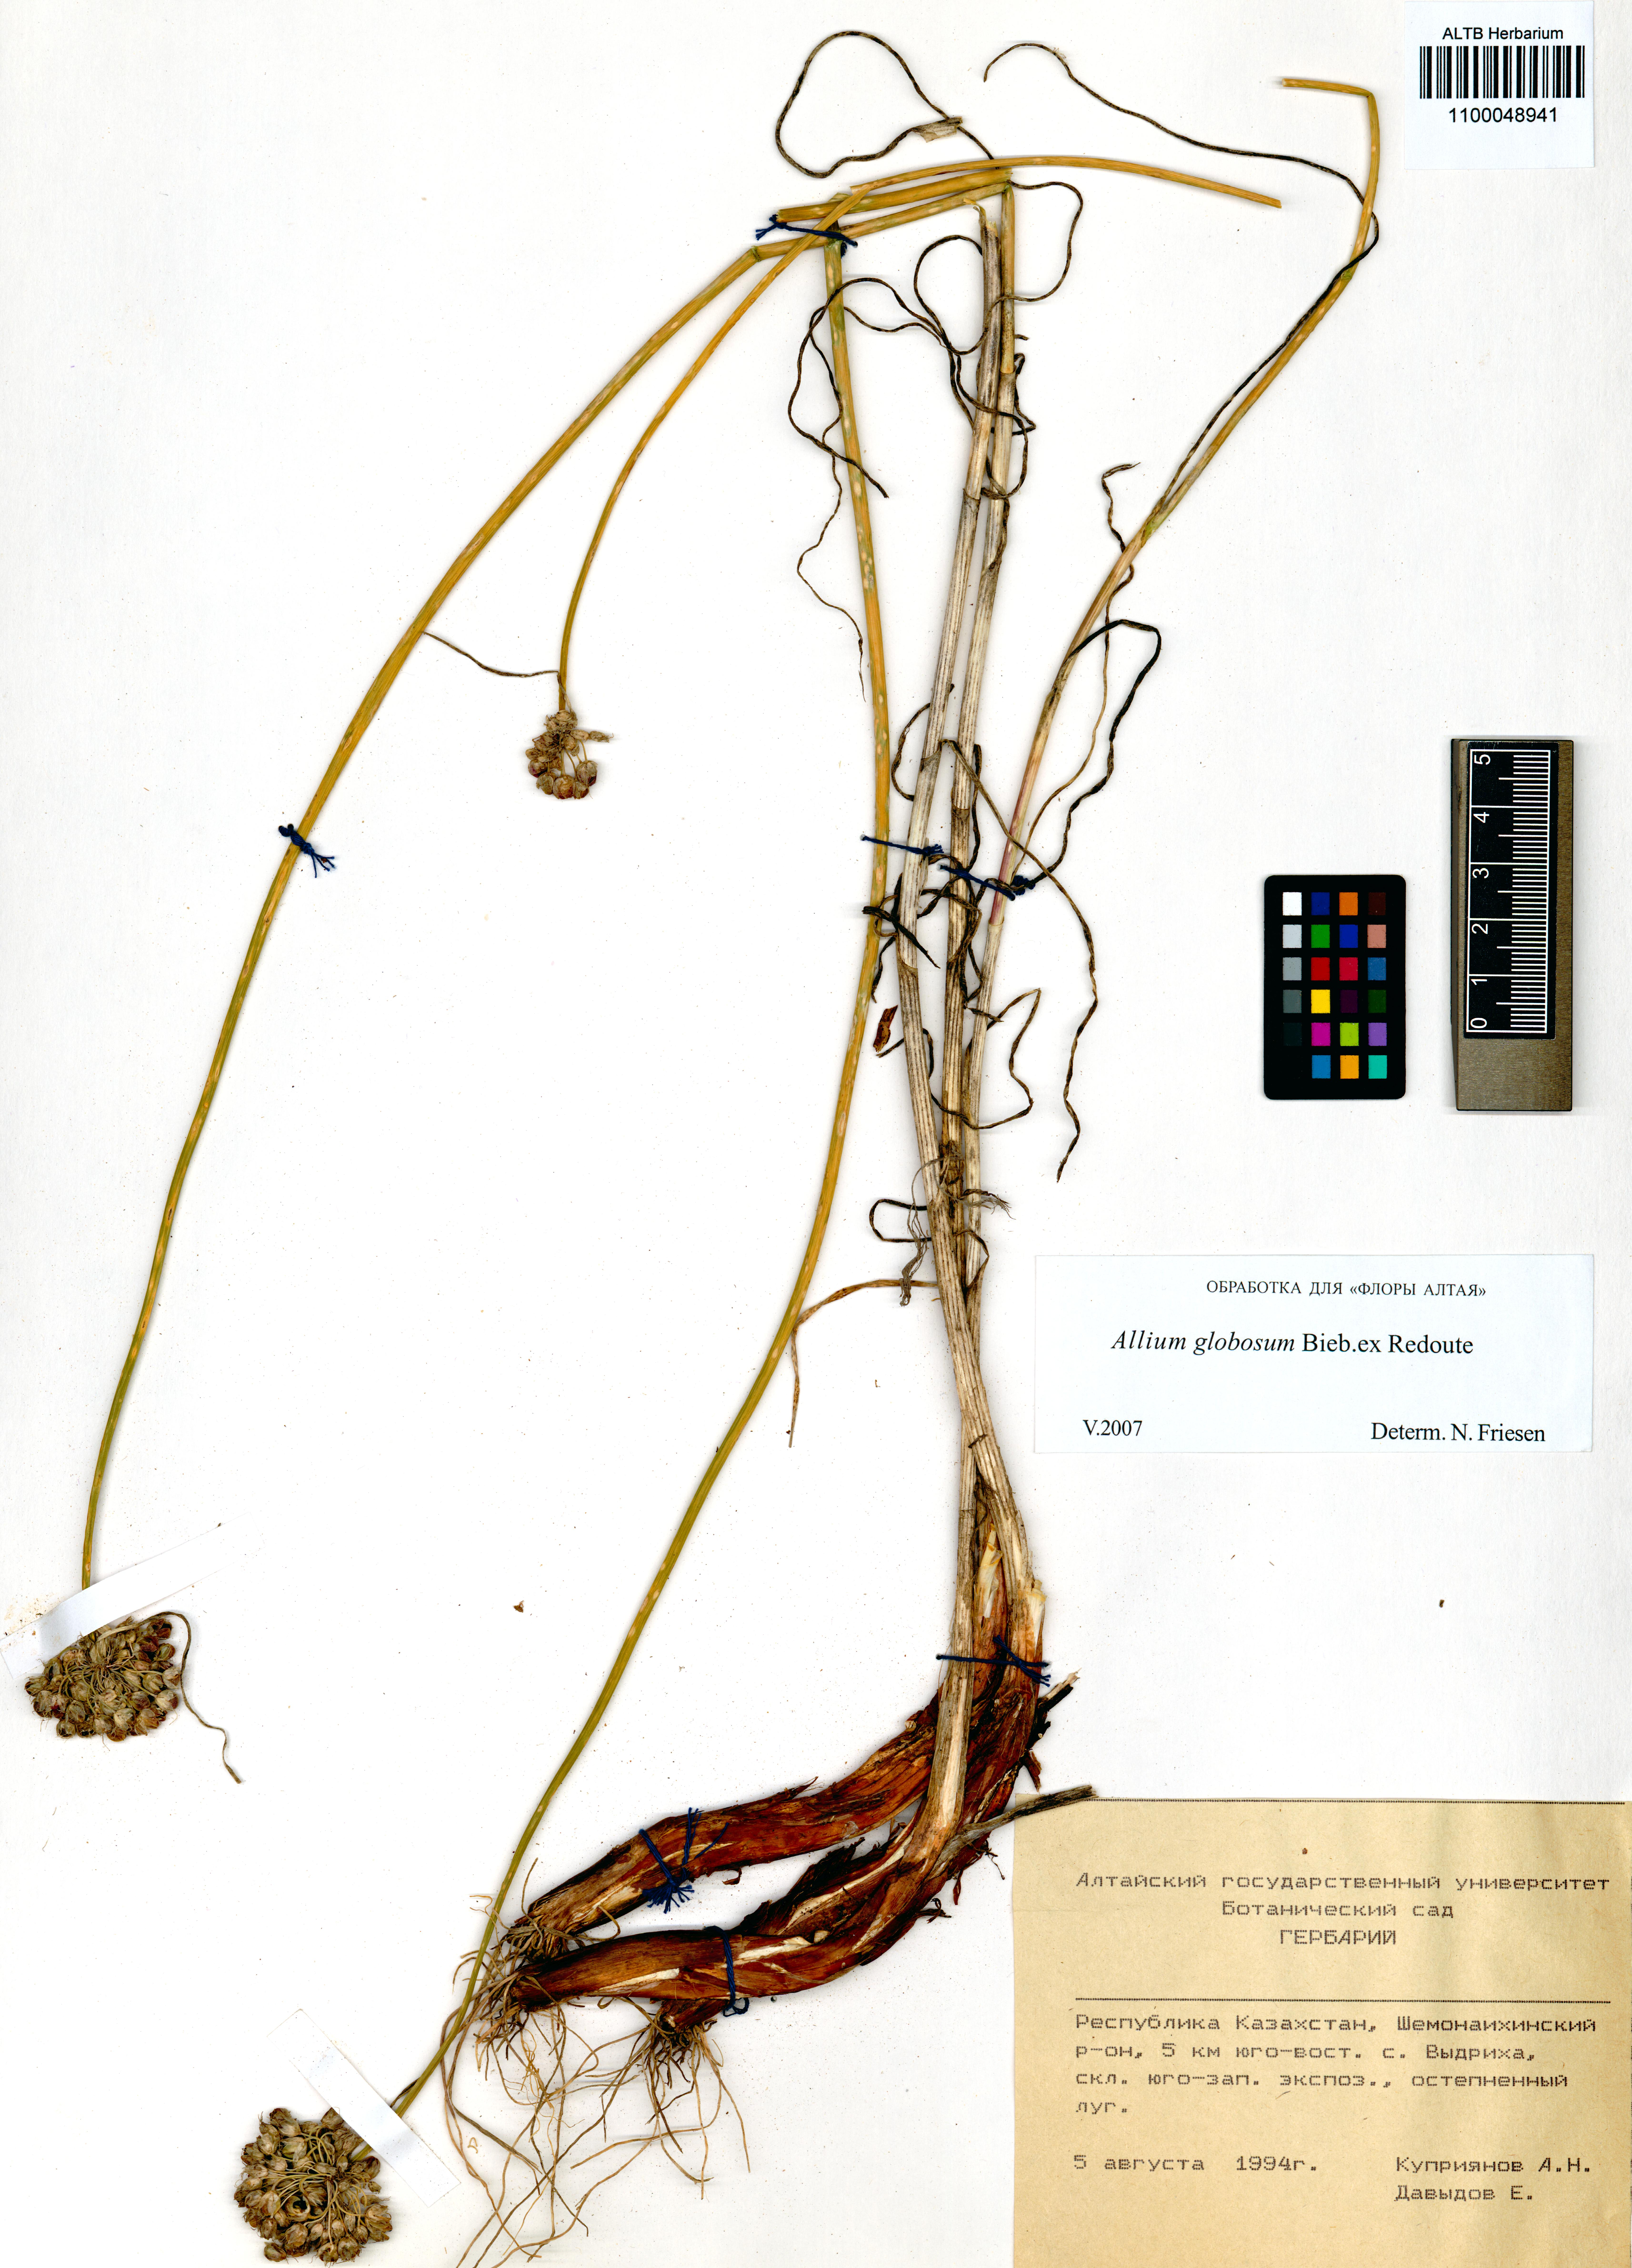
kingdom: Plantae
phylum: Tracheophyta
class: Liliopsida
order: Asparagales
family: Amaryllidaceae
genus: Allium
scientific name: Allium saxatile
